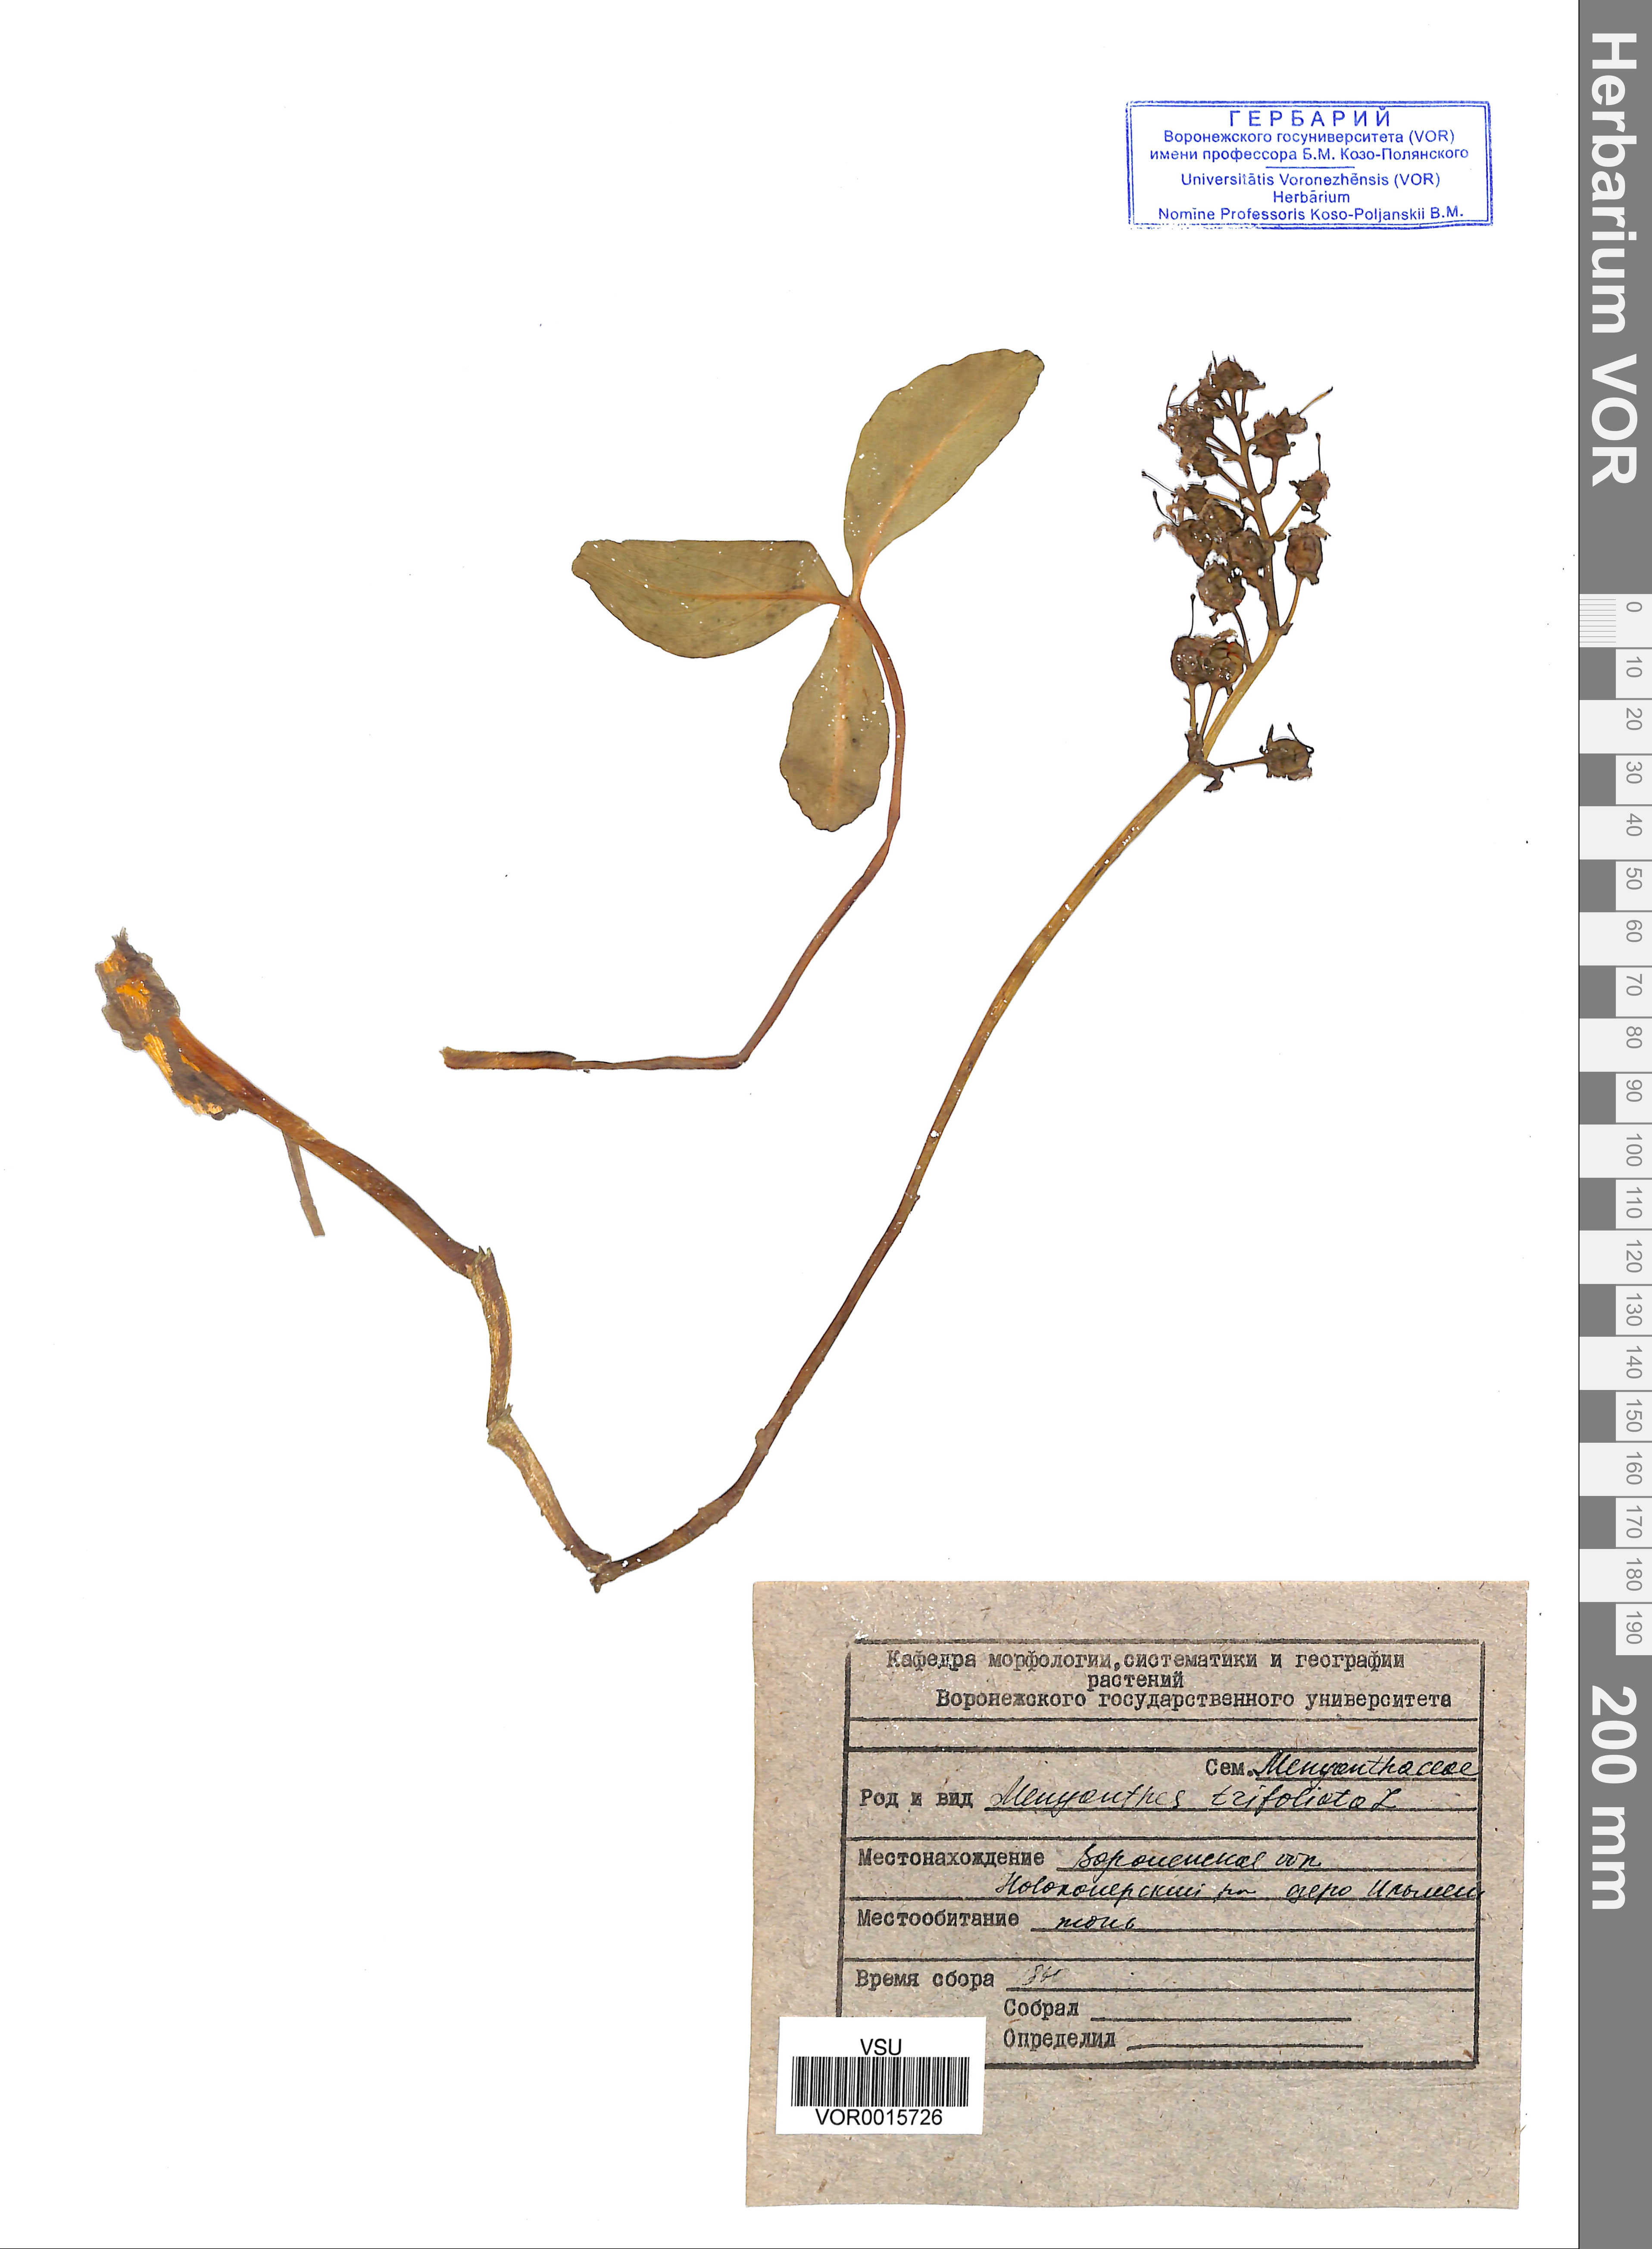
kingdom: Plantae
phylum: Tracheophyta
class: Magnoliopsida
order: Asterales
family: Menyanthaceae
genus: Menyanthes
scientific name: Menyanthes trifoliata
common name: Bogbean
